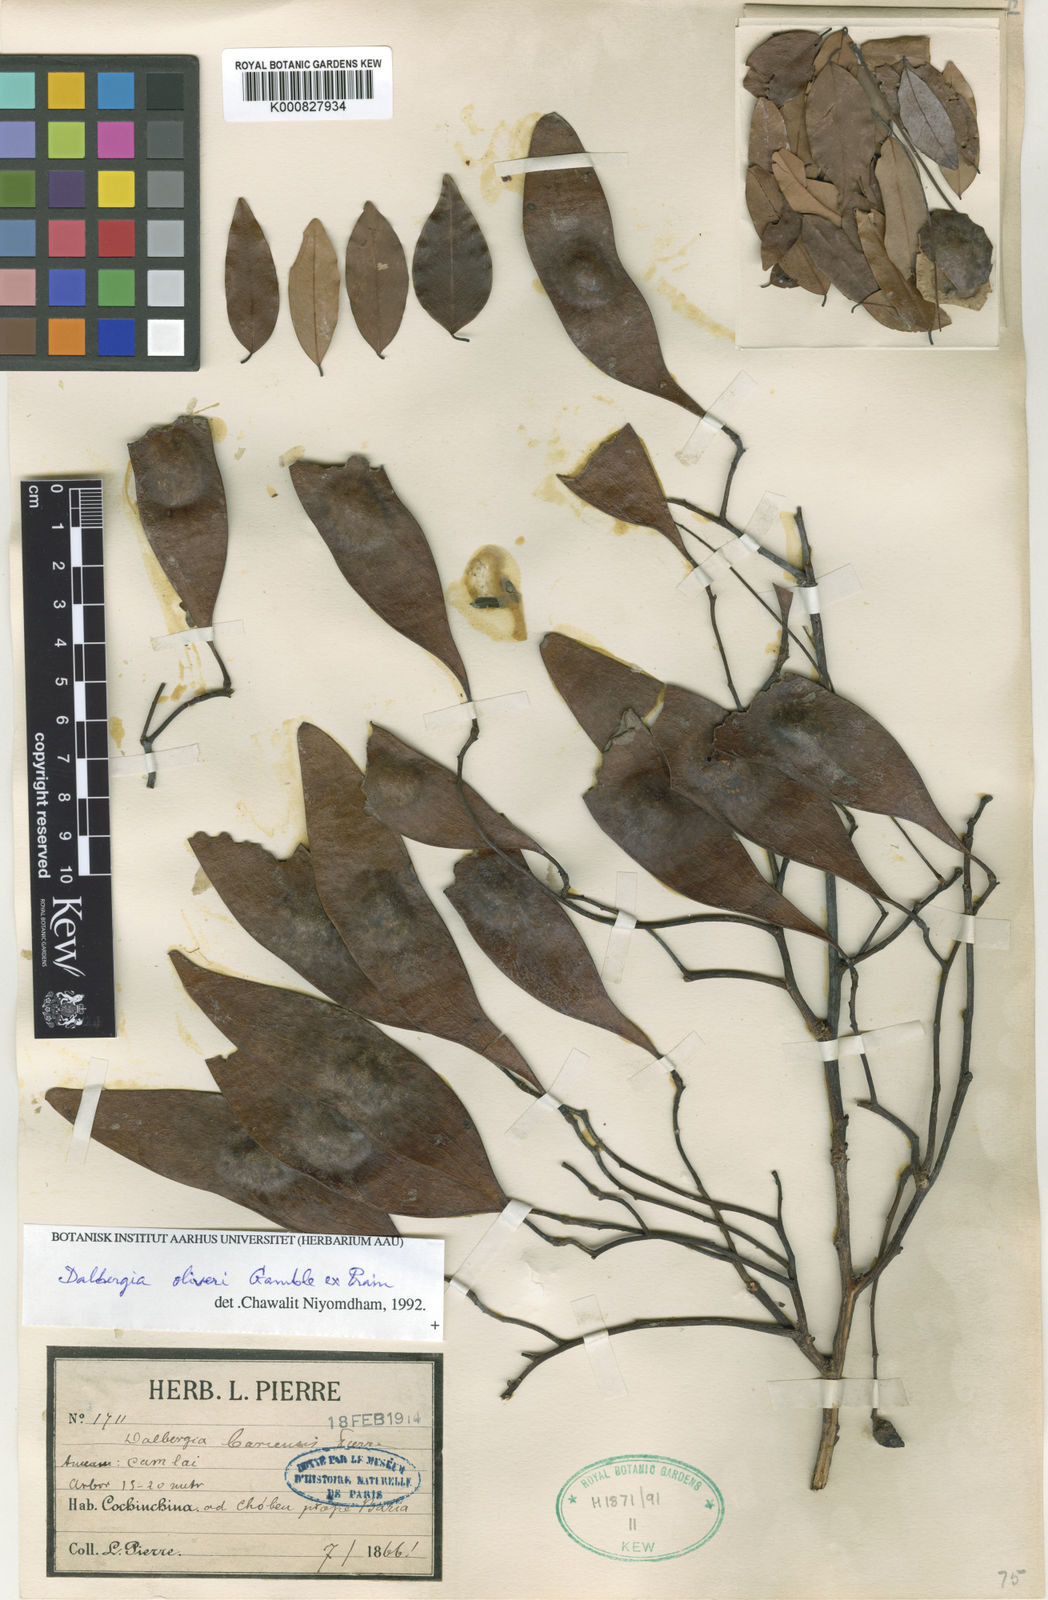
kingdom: Plantae
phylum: Tracheophyta
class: Magnoliopsida
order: Fabales
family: Fabaceae
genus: Dalbergia
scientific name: Dalbergia oliveri
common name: Burmese rosewood
